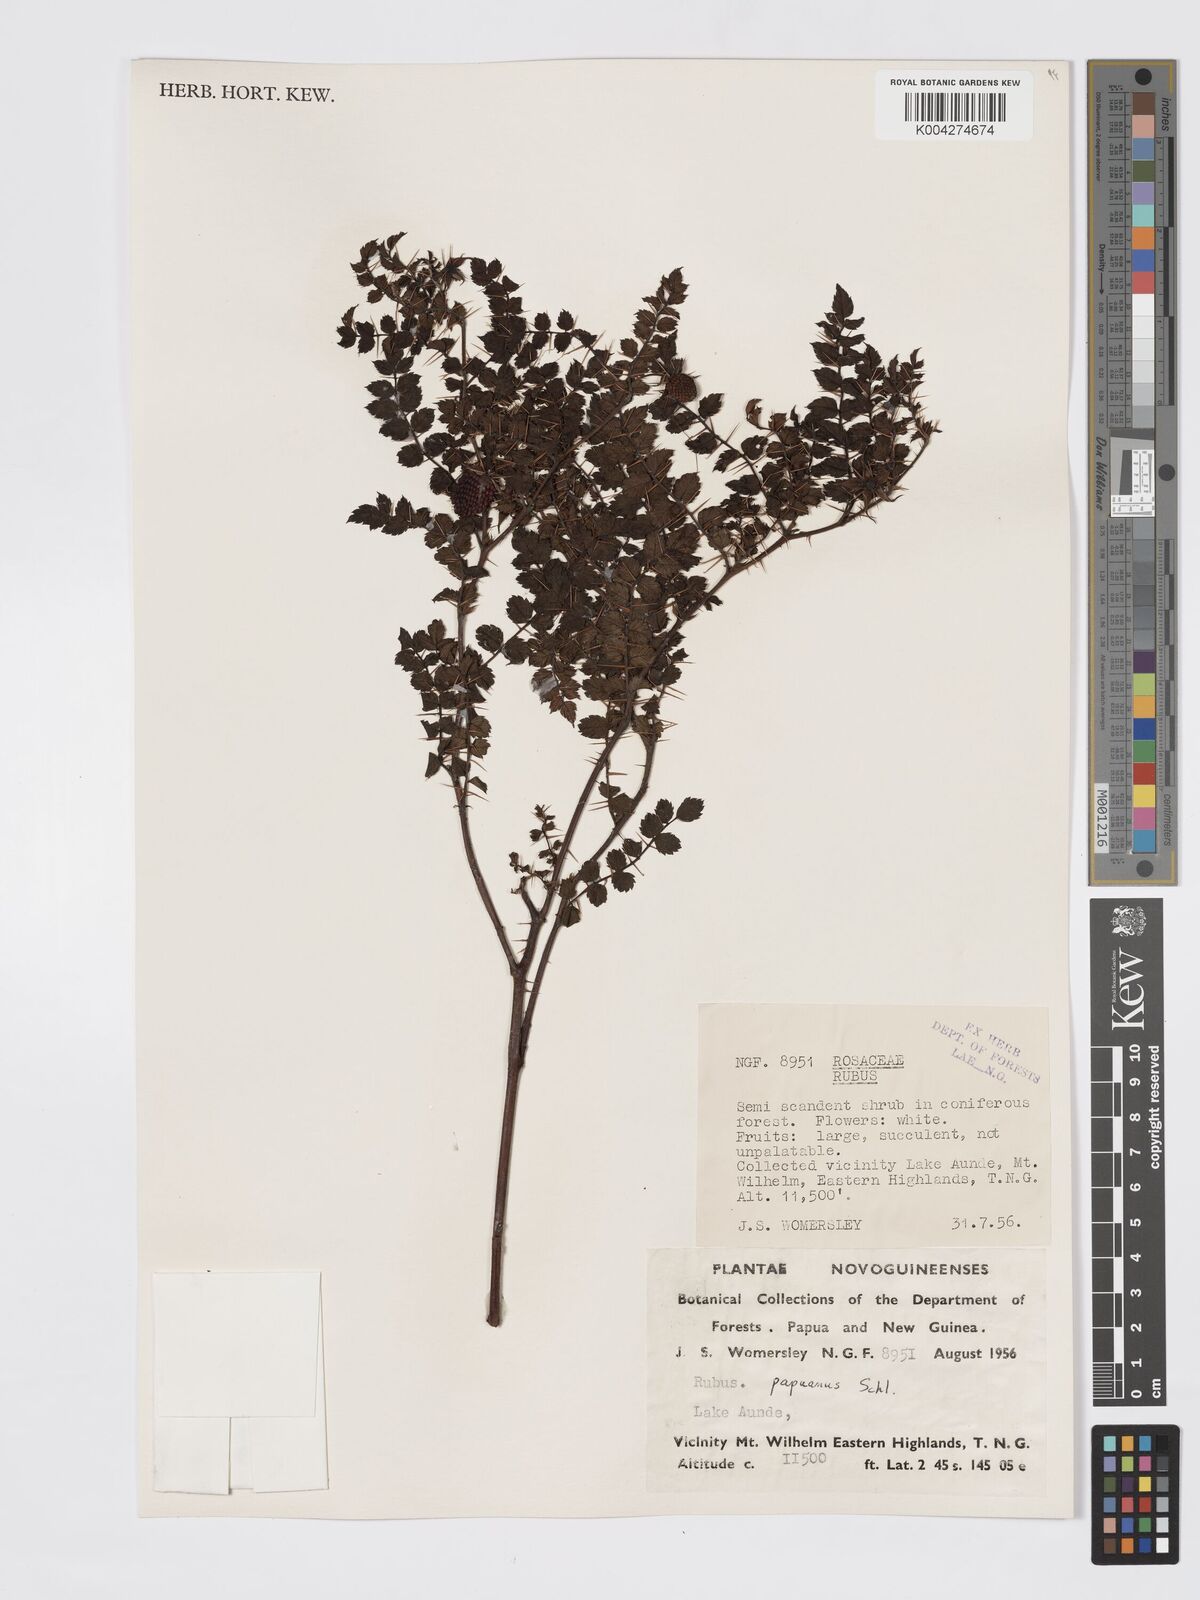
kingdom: Plantae
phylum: Tracheophyta
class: Magnoliopsida
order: Rosales
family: Rosaceae
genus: Rubus
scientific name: Rubus papuanus
